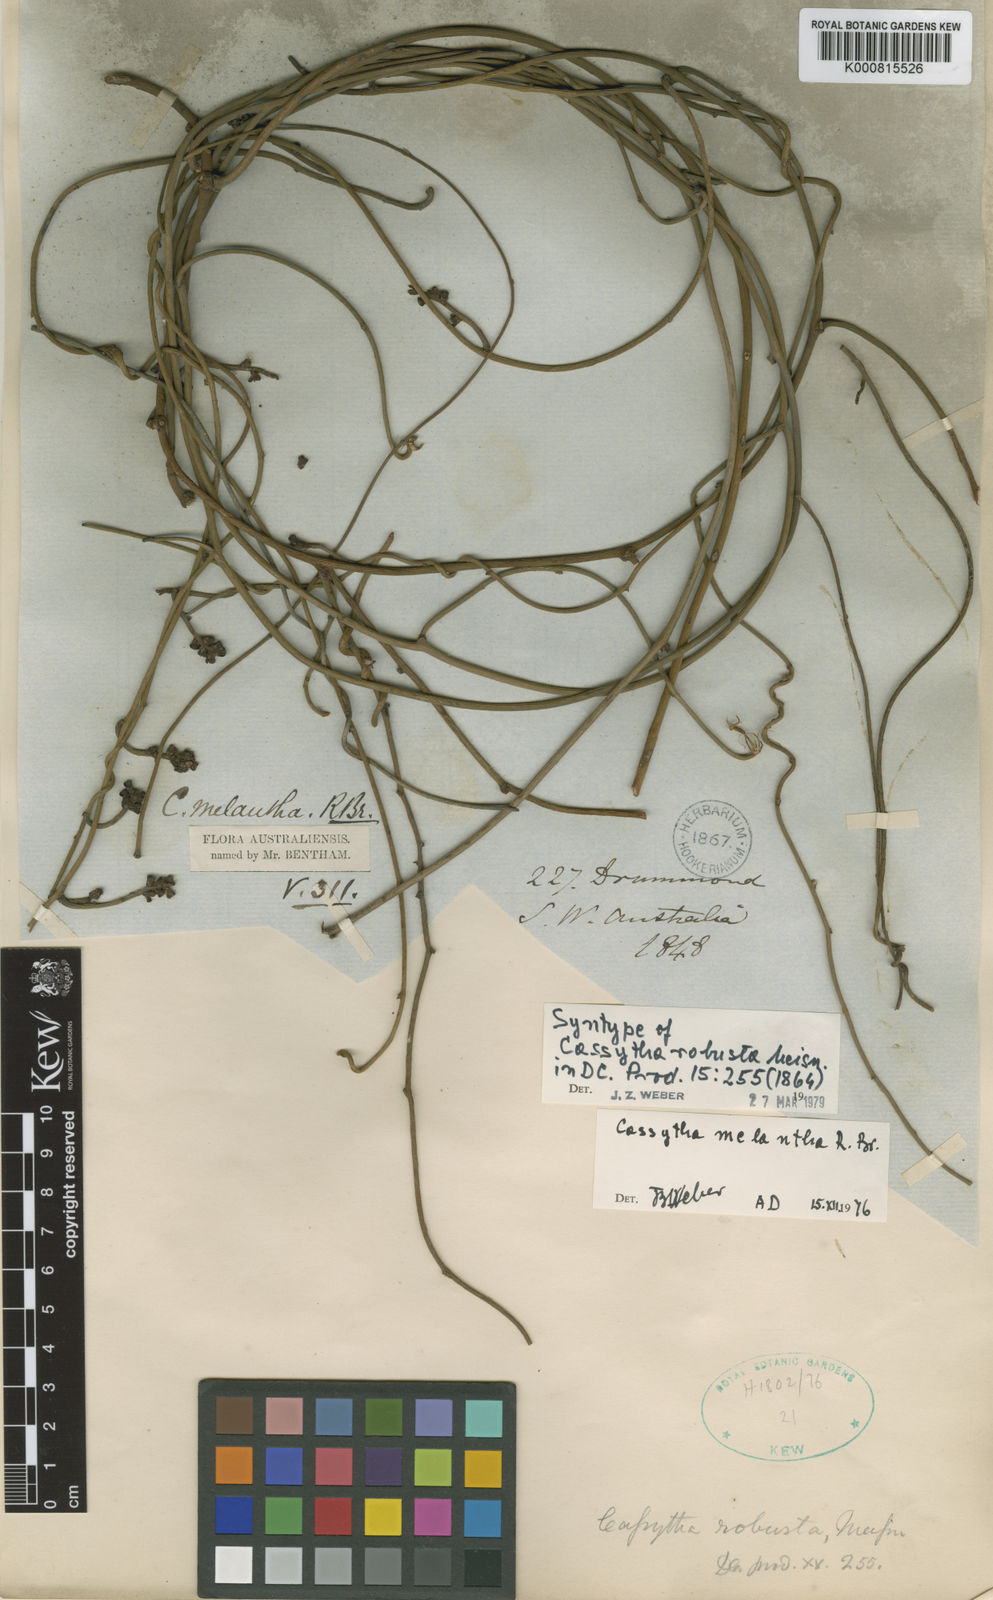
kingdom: Plantae
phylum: Tracheophyta
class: Magnoliopsida
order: Laurales
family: Lauraceae
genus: Cassytha
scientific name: Cassytha melantha
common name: Mallee stranglevine
